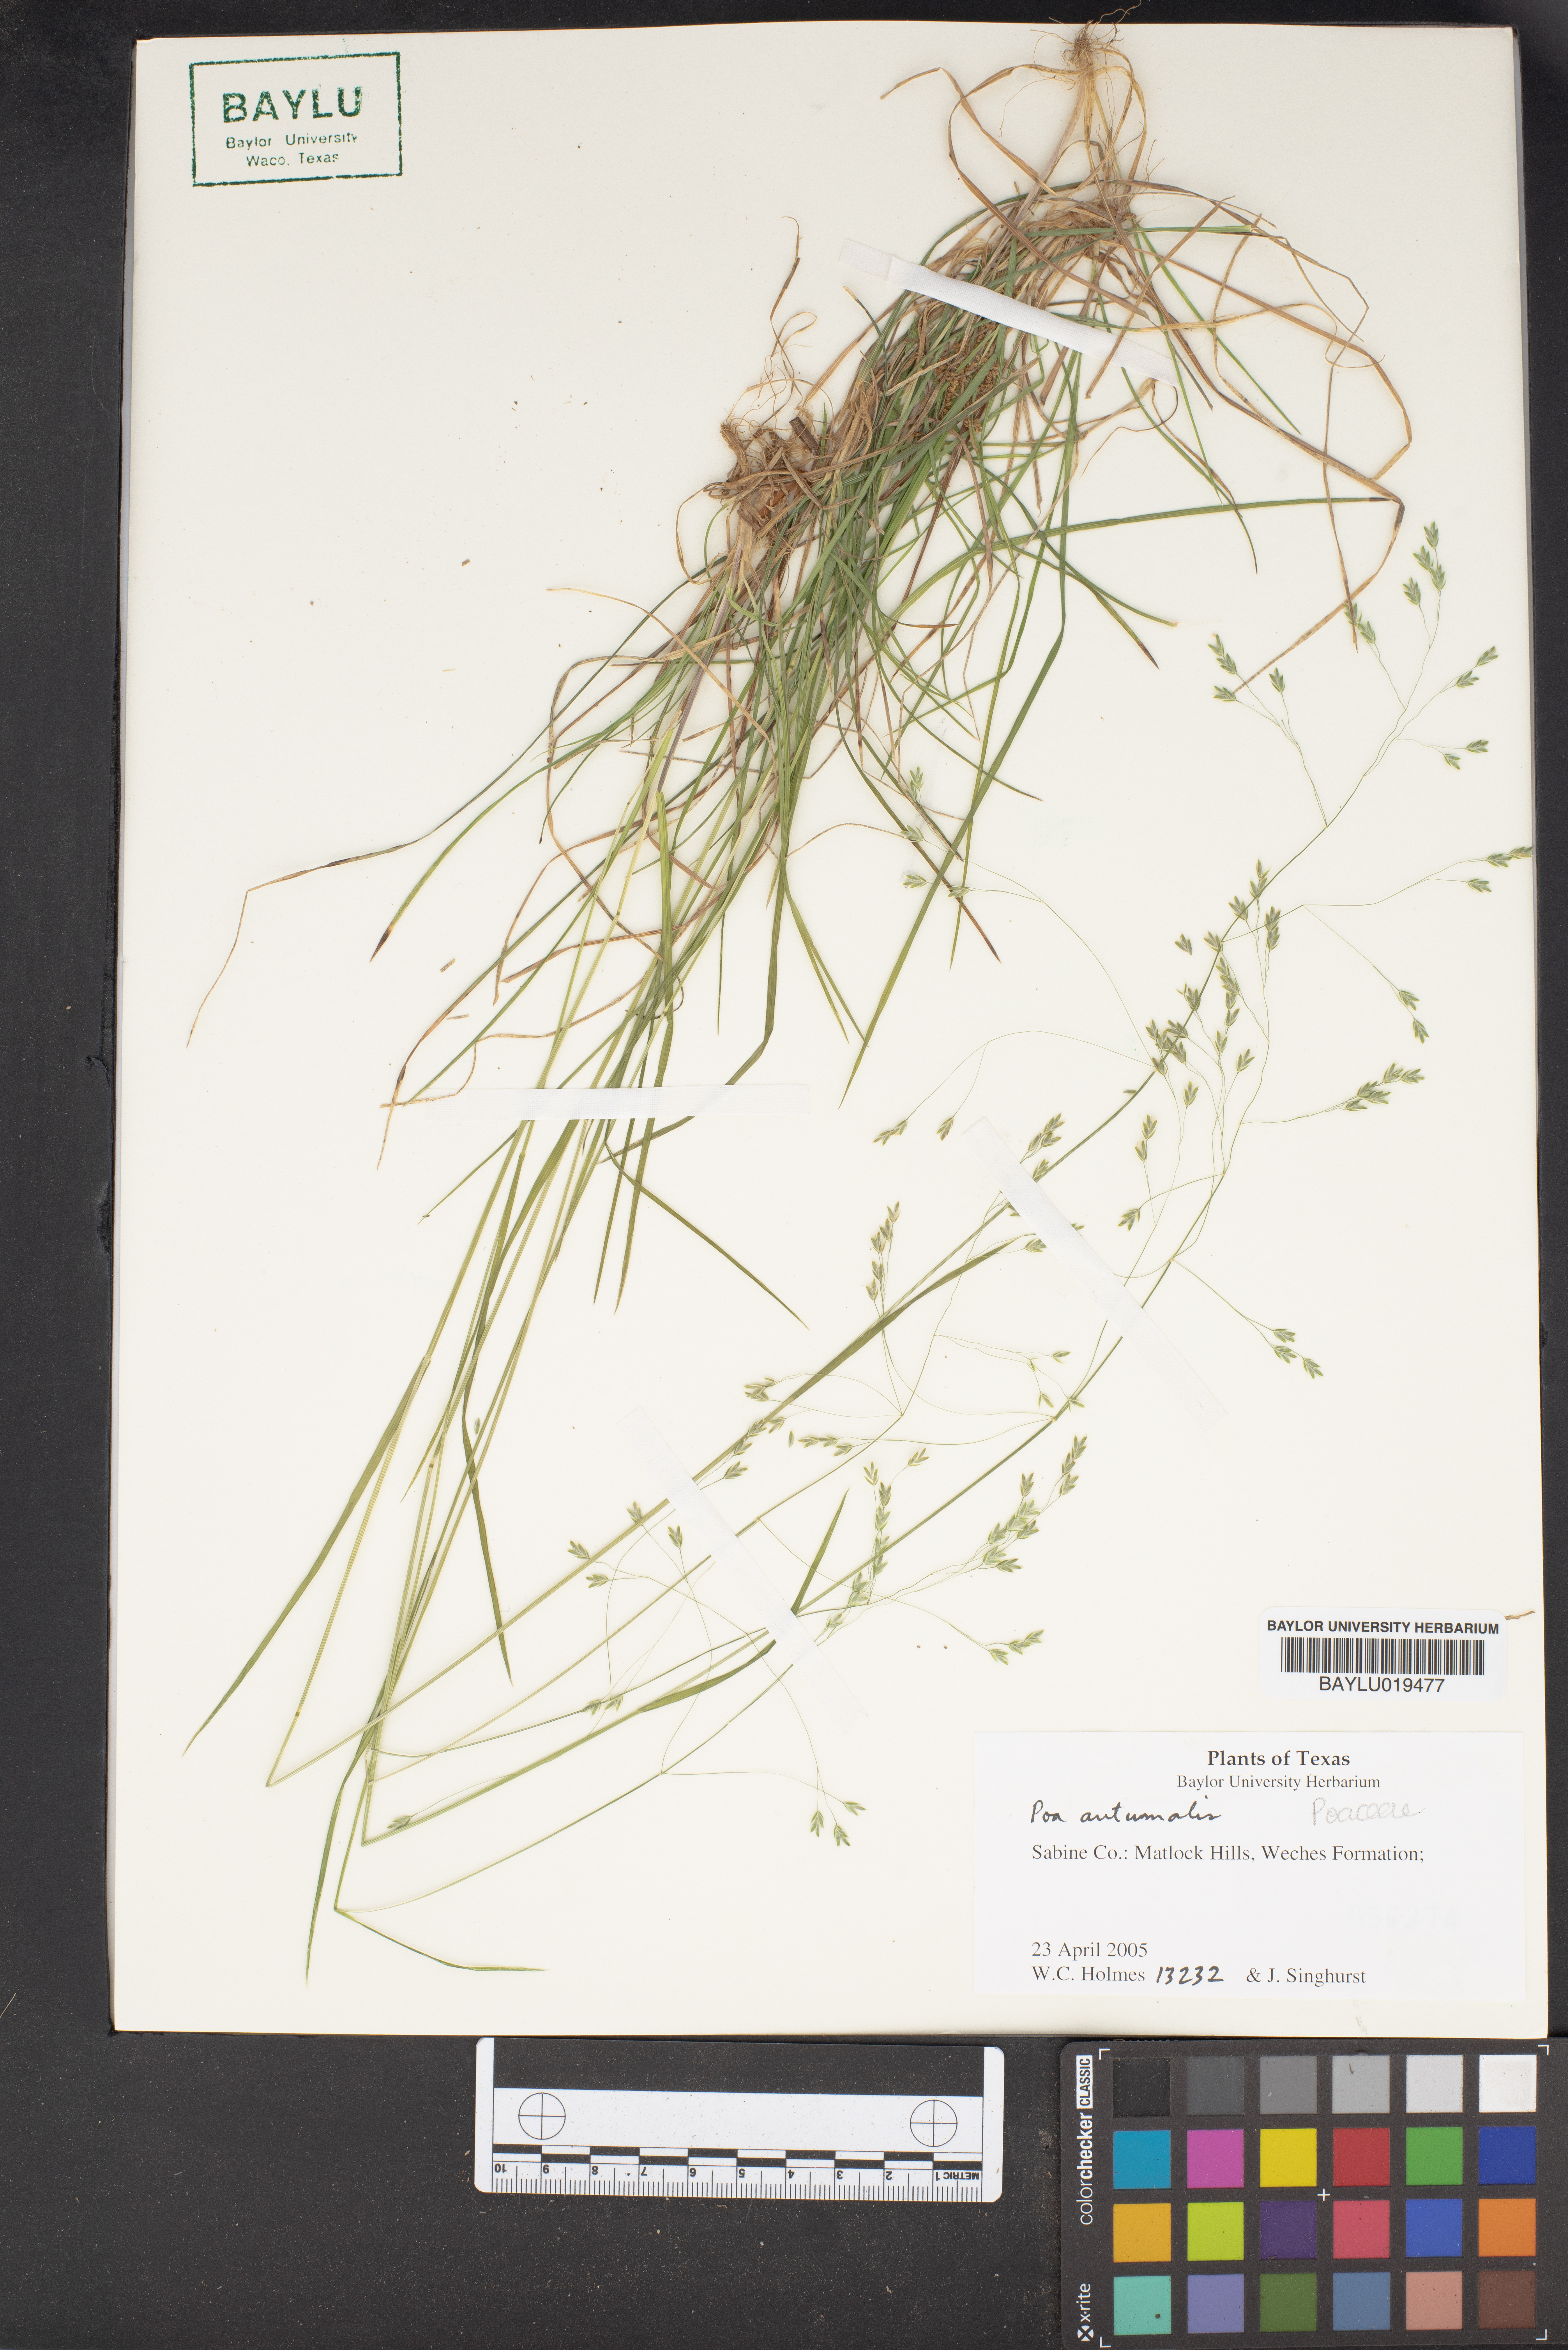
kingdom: Plantae
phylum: Tracheophyta
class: Liliopsida
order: Poales
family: Poaceae
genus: Poa
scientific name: Poa autumnalis
